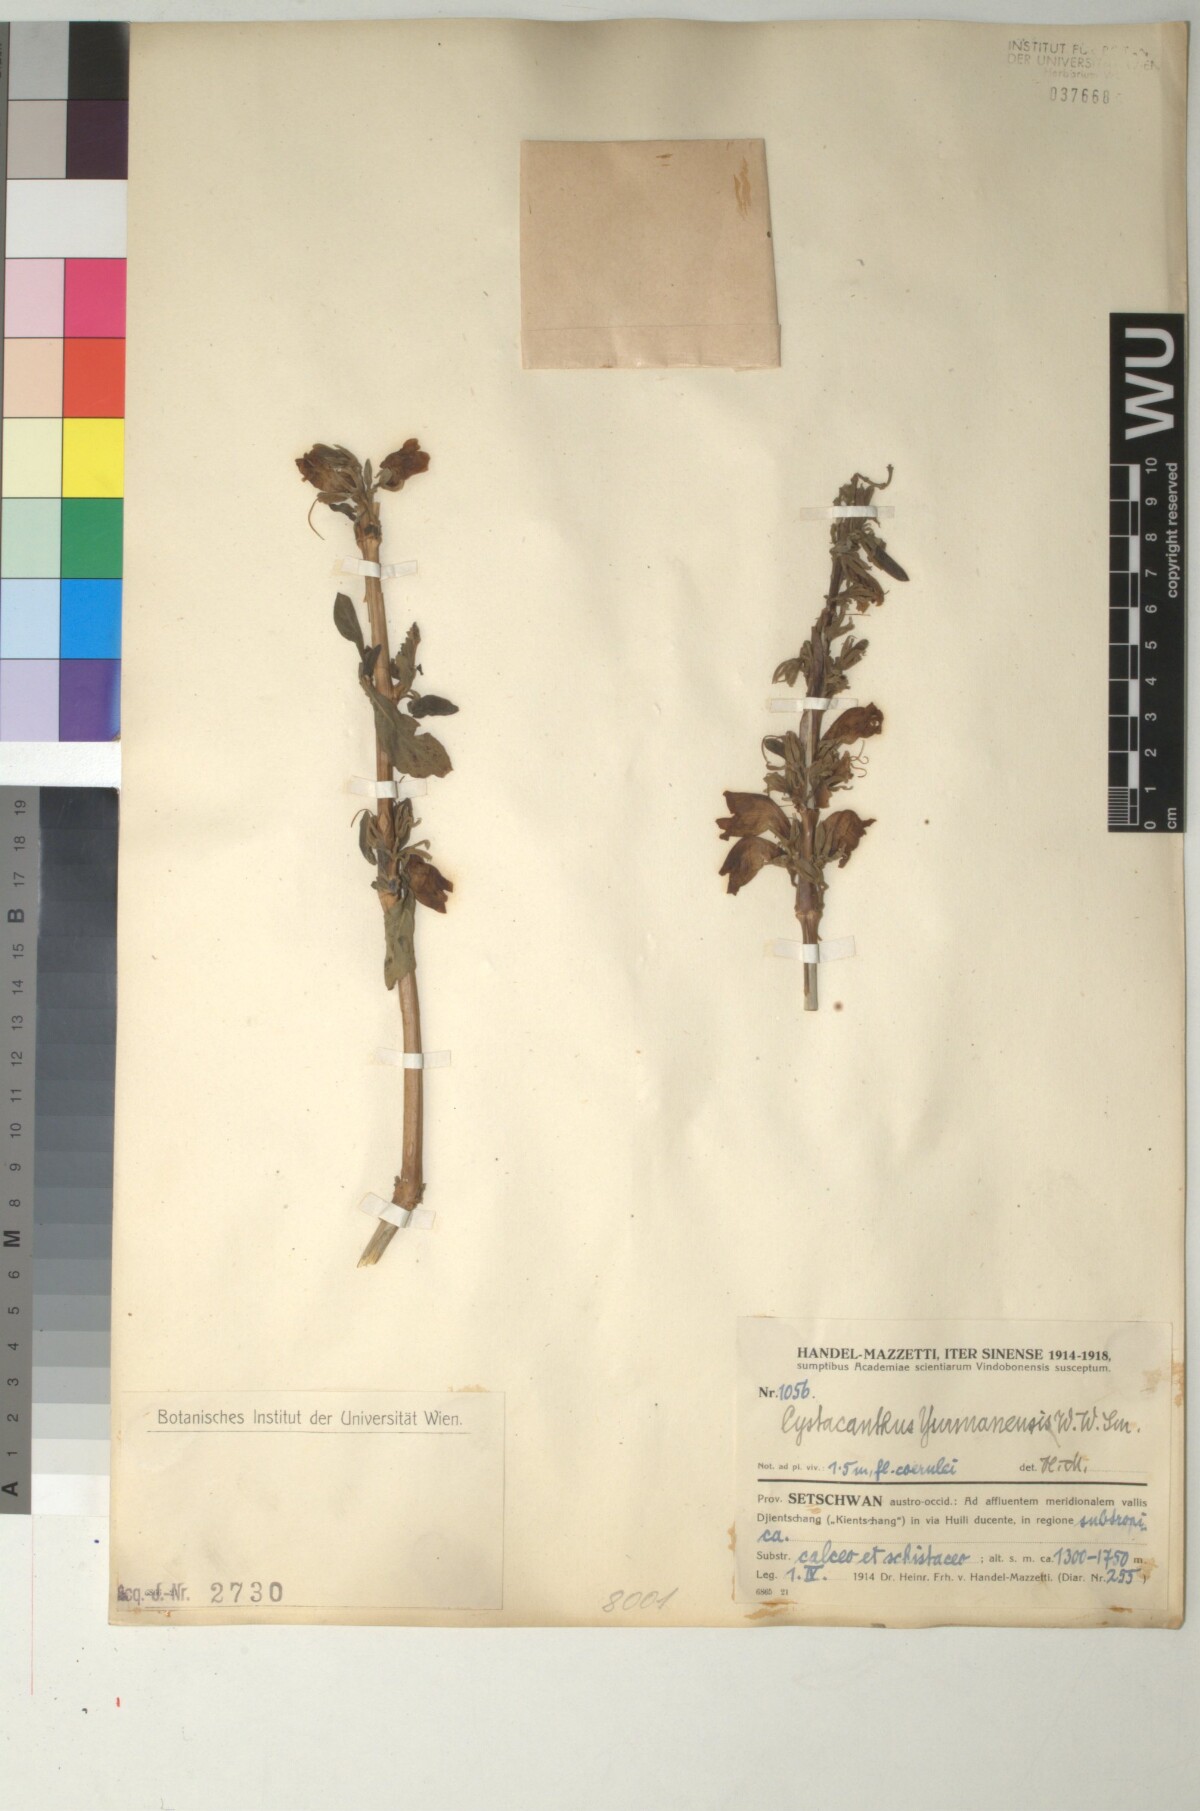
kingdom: Plantae
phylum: Tracheophyta
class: Magnoliopsida
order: Lamiales
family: Acanthaceae
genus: Phlogacanthus
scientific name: Phlogacanthus yangtsekiangensis
